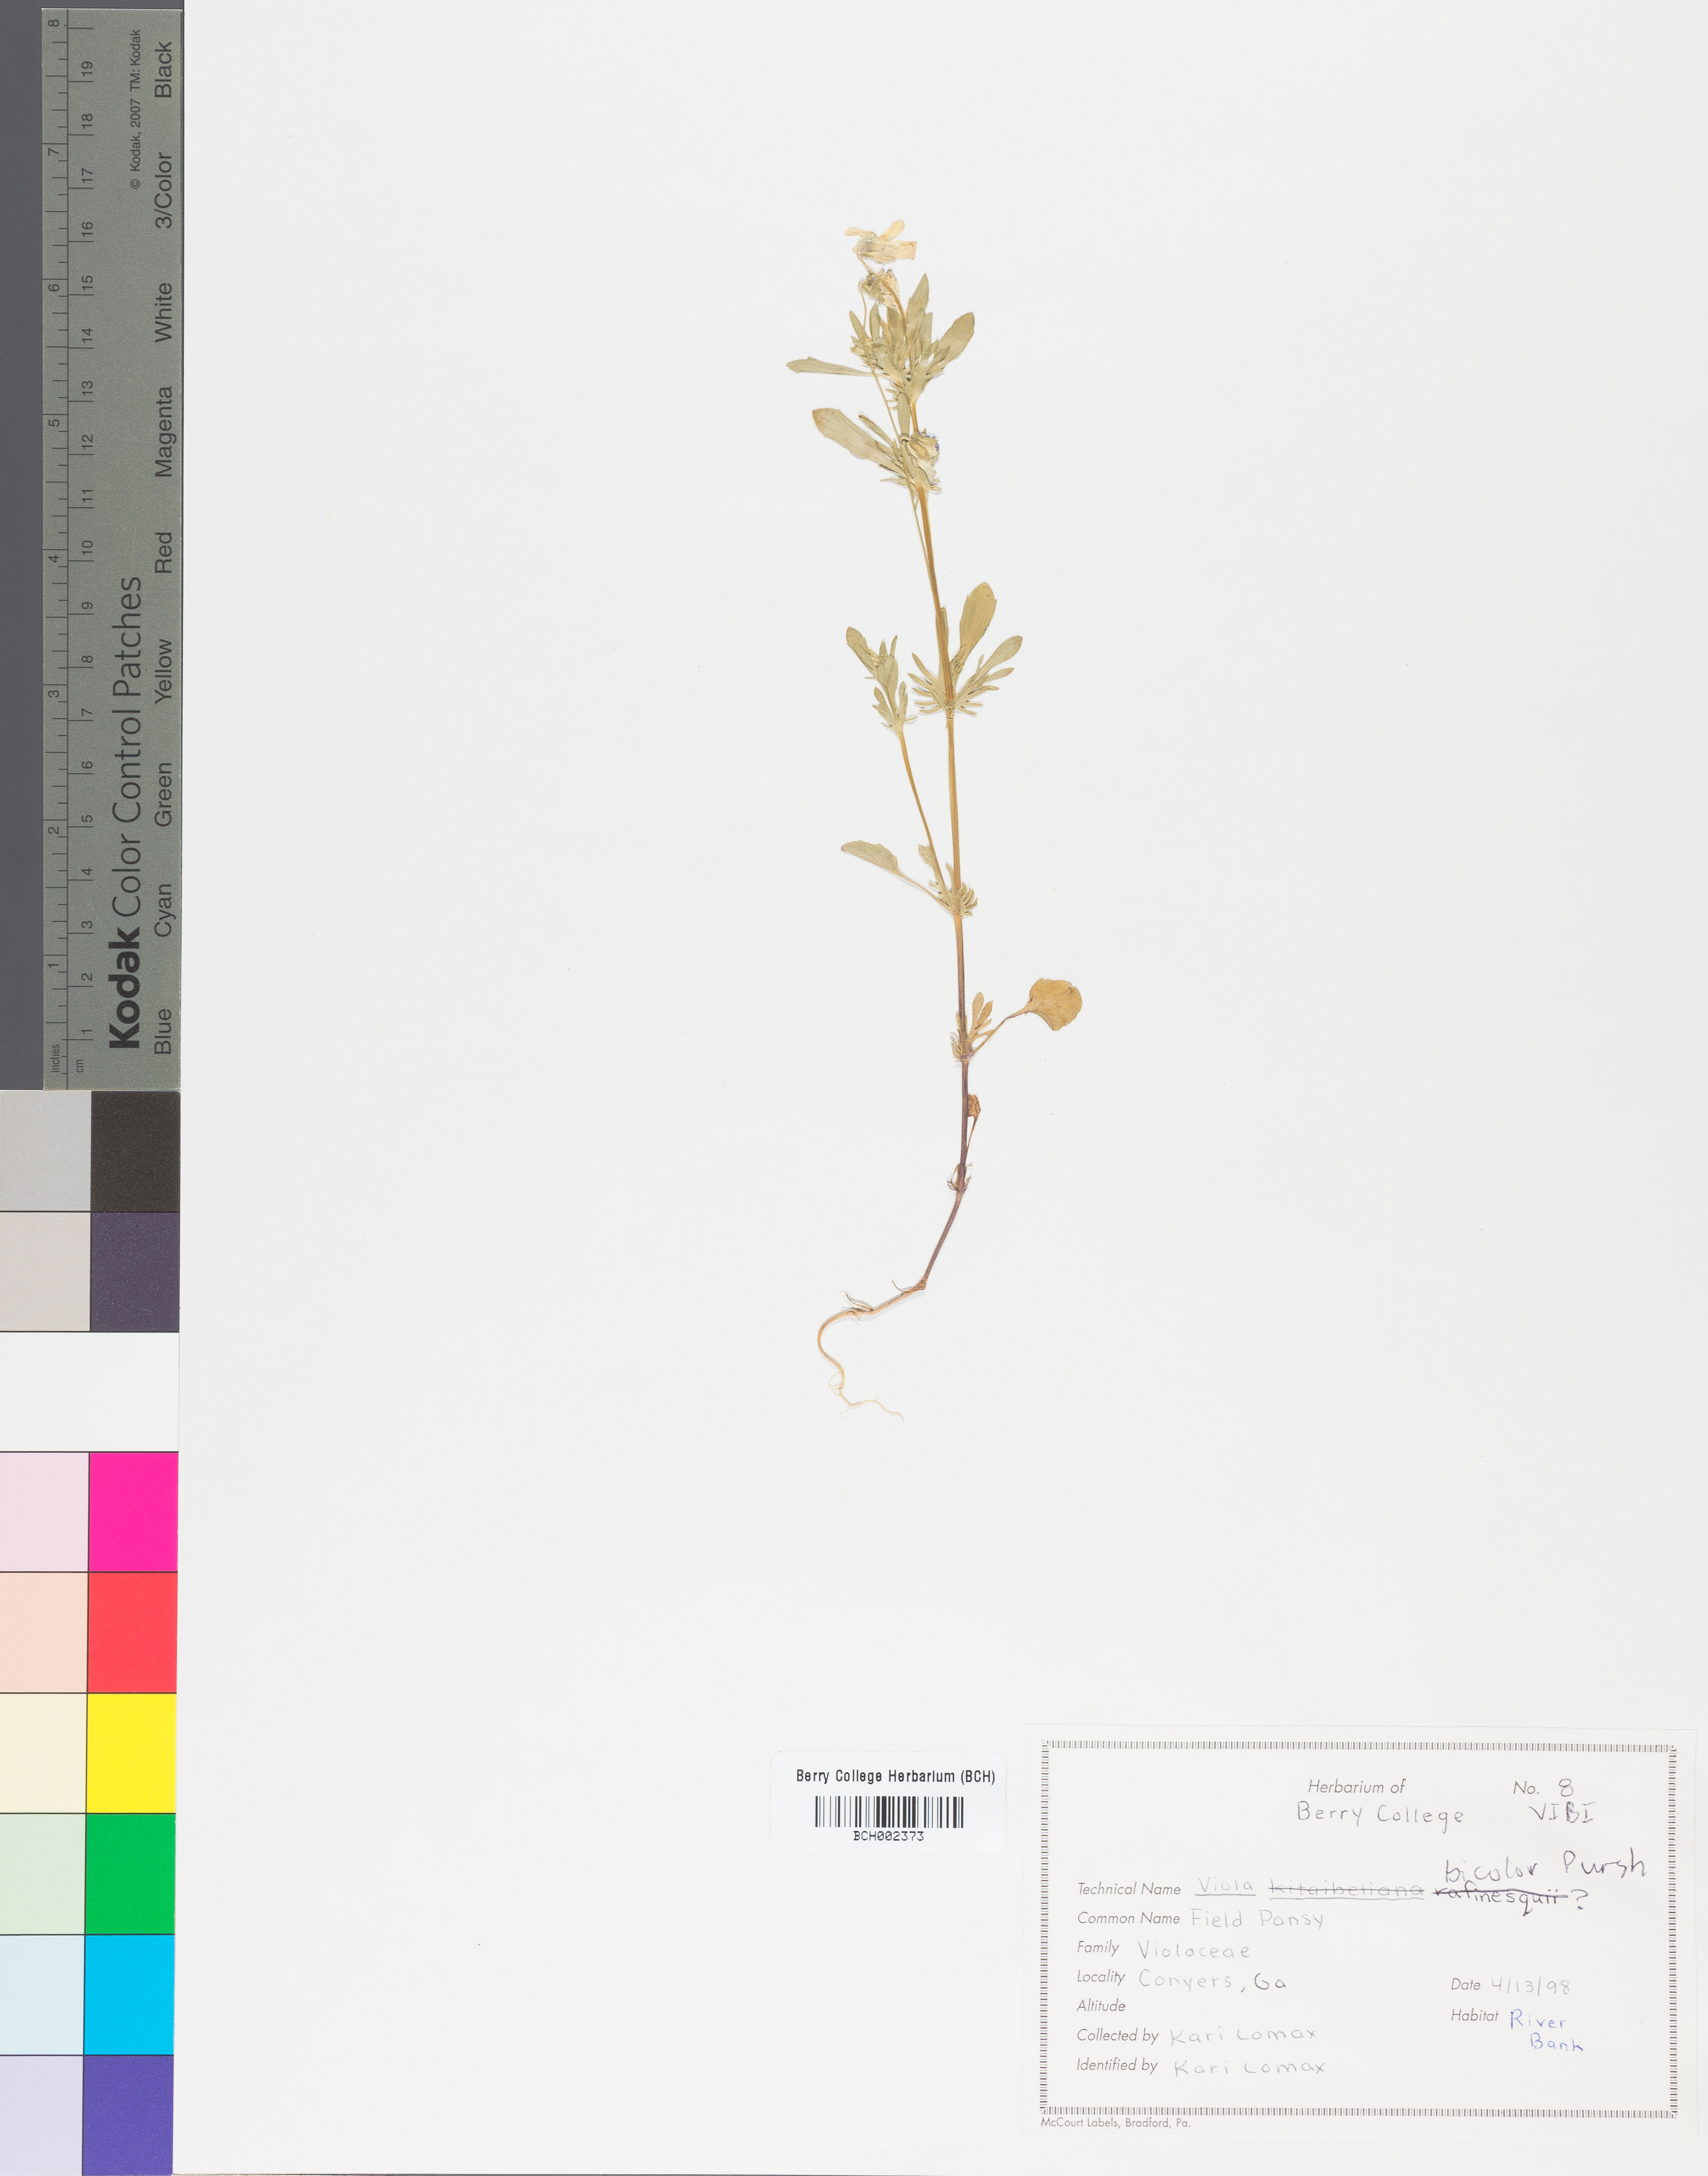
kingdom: Plantae
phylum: Tracheophyta
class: Magnoliopsida
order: Malpighiales
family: Violaceae
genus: Viola
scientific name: Viola rafinesquei
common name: American field pansy
